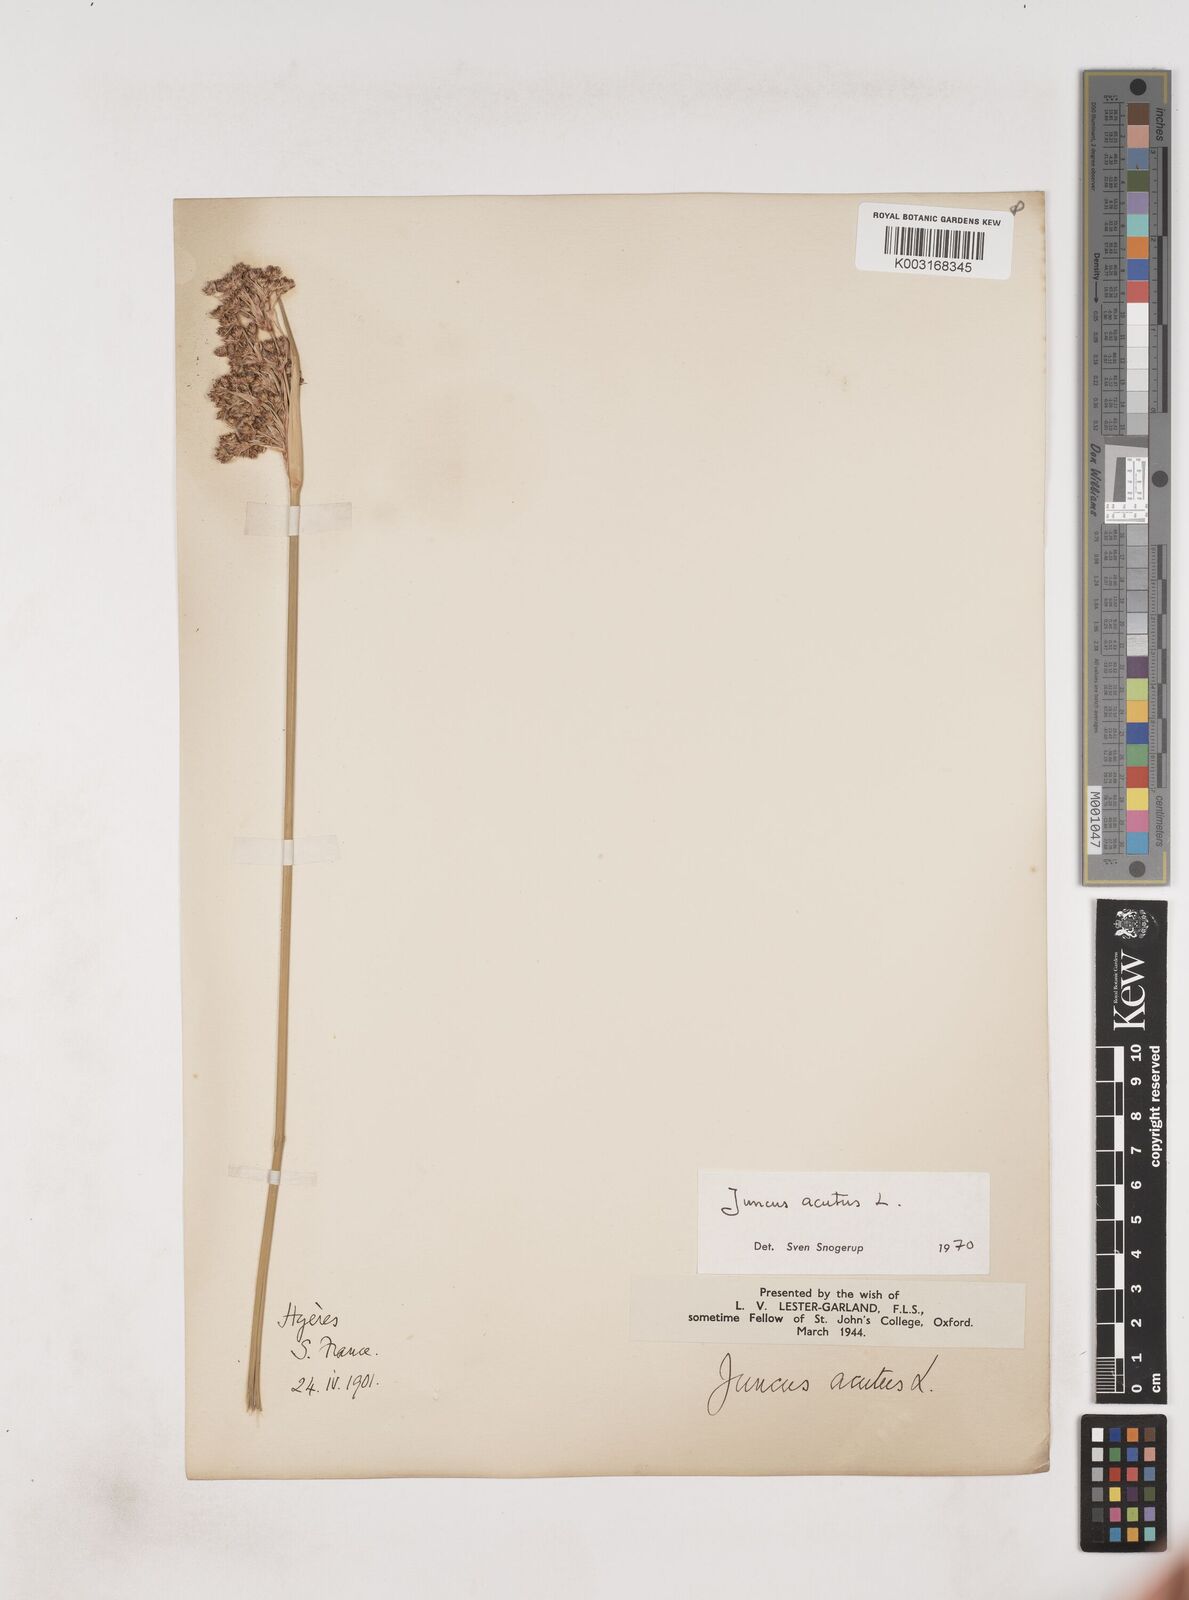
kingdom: Plantae
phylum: Tracheophyta
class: Liliopsida
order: Poales
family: Juncaceae
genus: Juncus
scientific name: Juncus acutus
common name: Sharp rush
